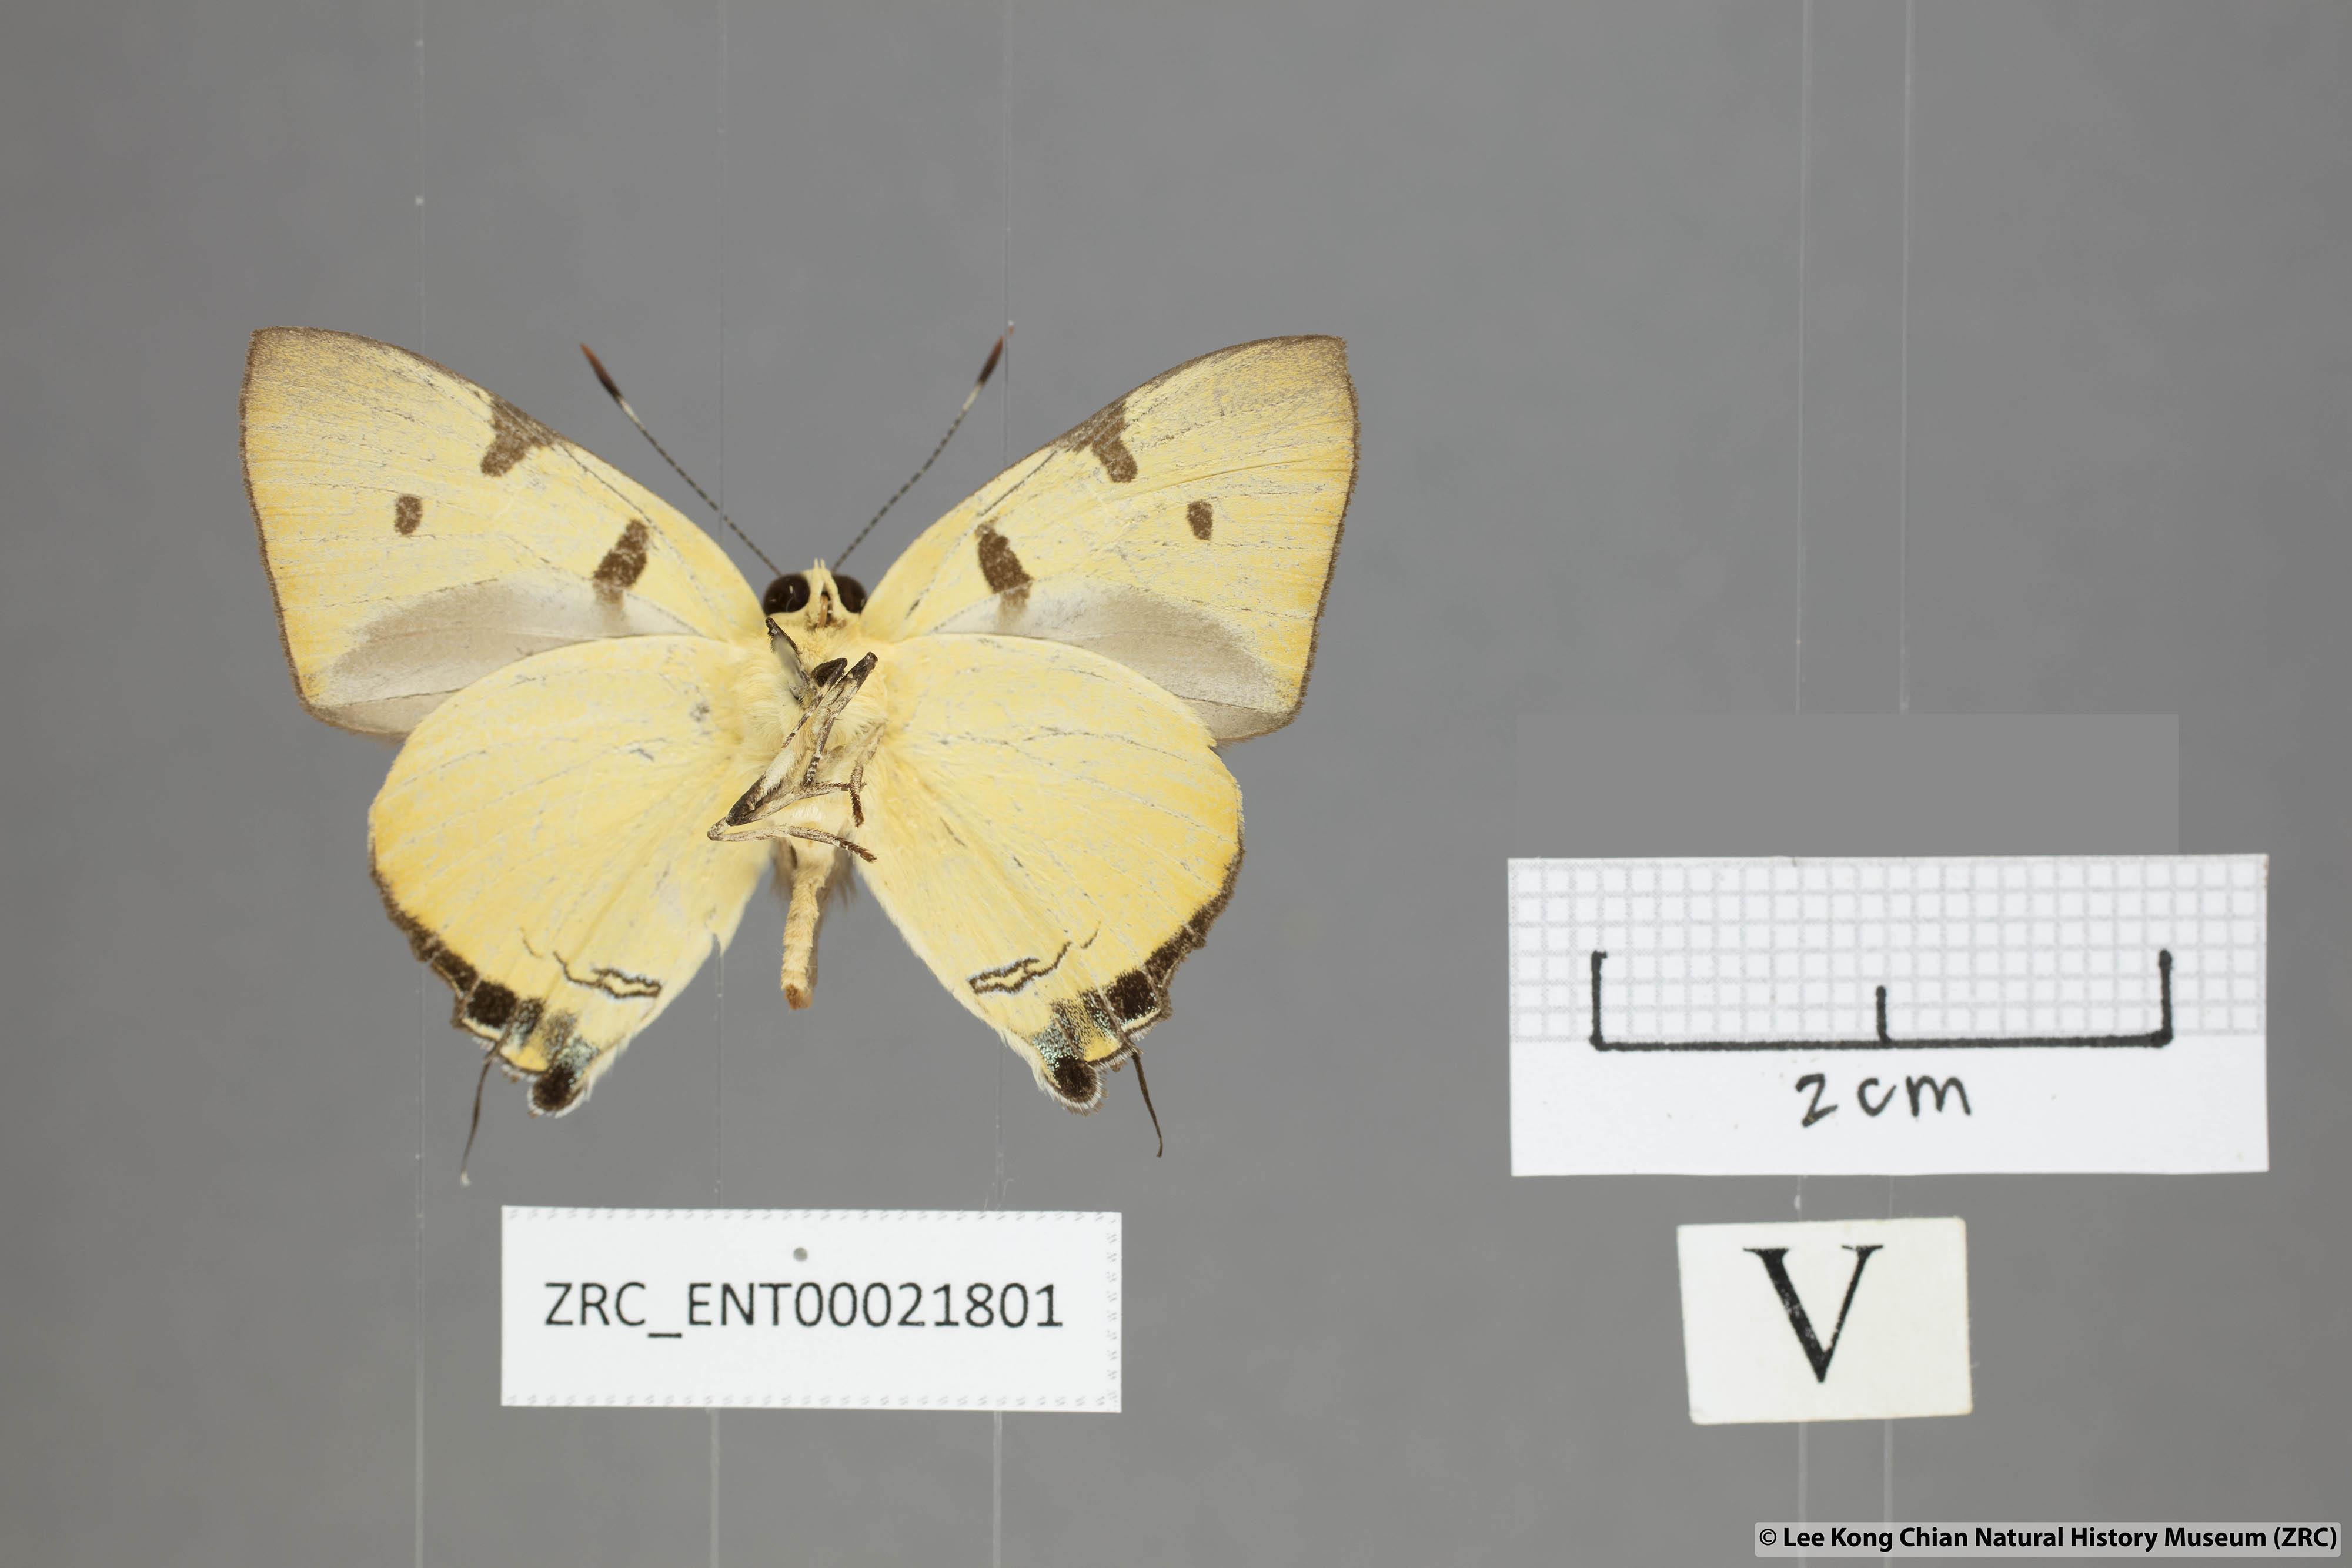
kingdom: Animalia
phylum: Arthropoda
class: Insecta
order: Lepidoptera
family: Lycaenidae
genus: Rapala
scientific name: Rapala domitia
